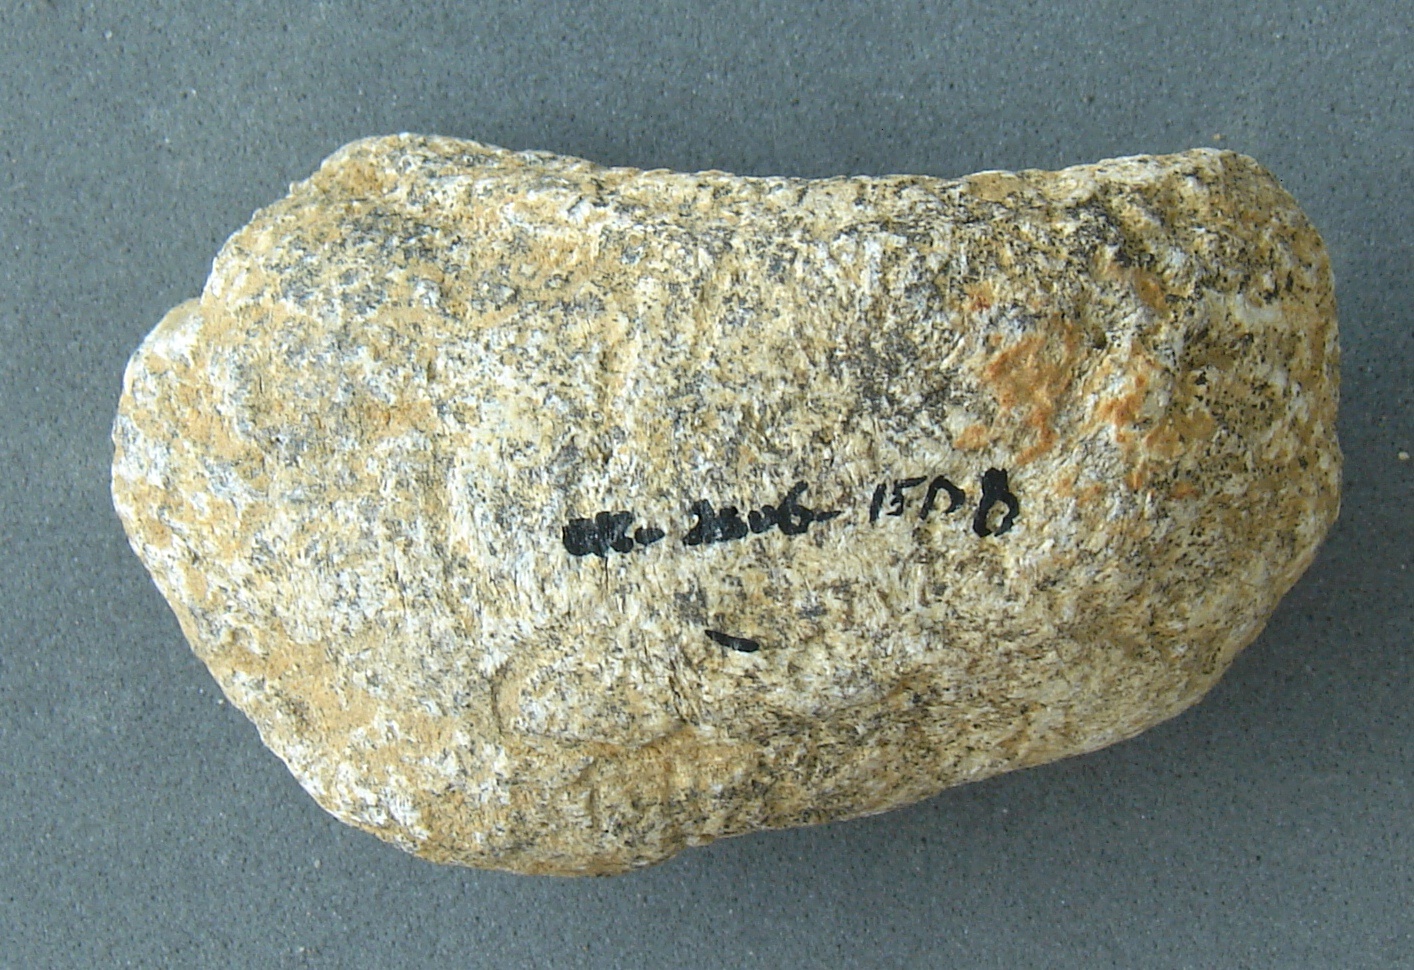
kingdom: Animalia
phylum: Chordata
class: Mammalia
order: Perissodactyla
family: Rhinocerotidae
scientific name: Rhinocerotidae
